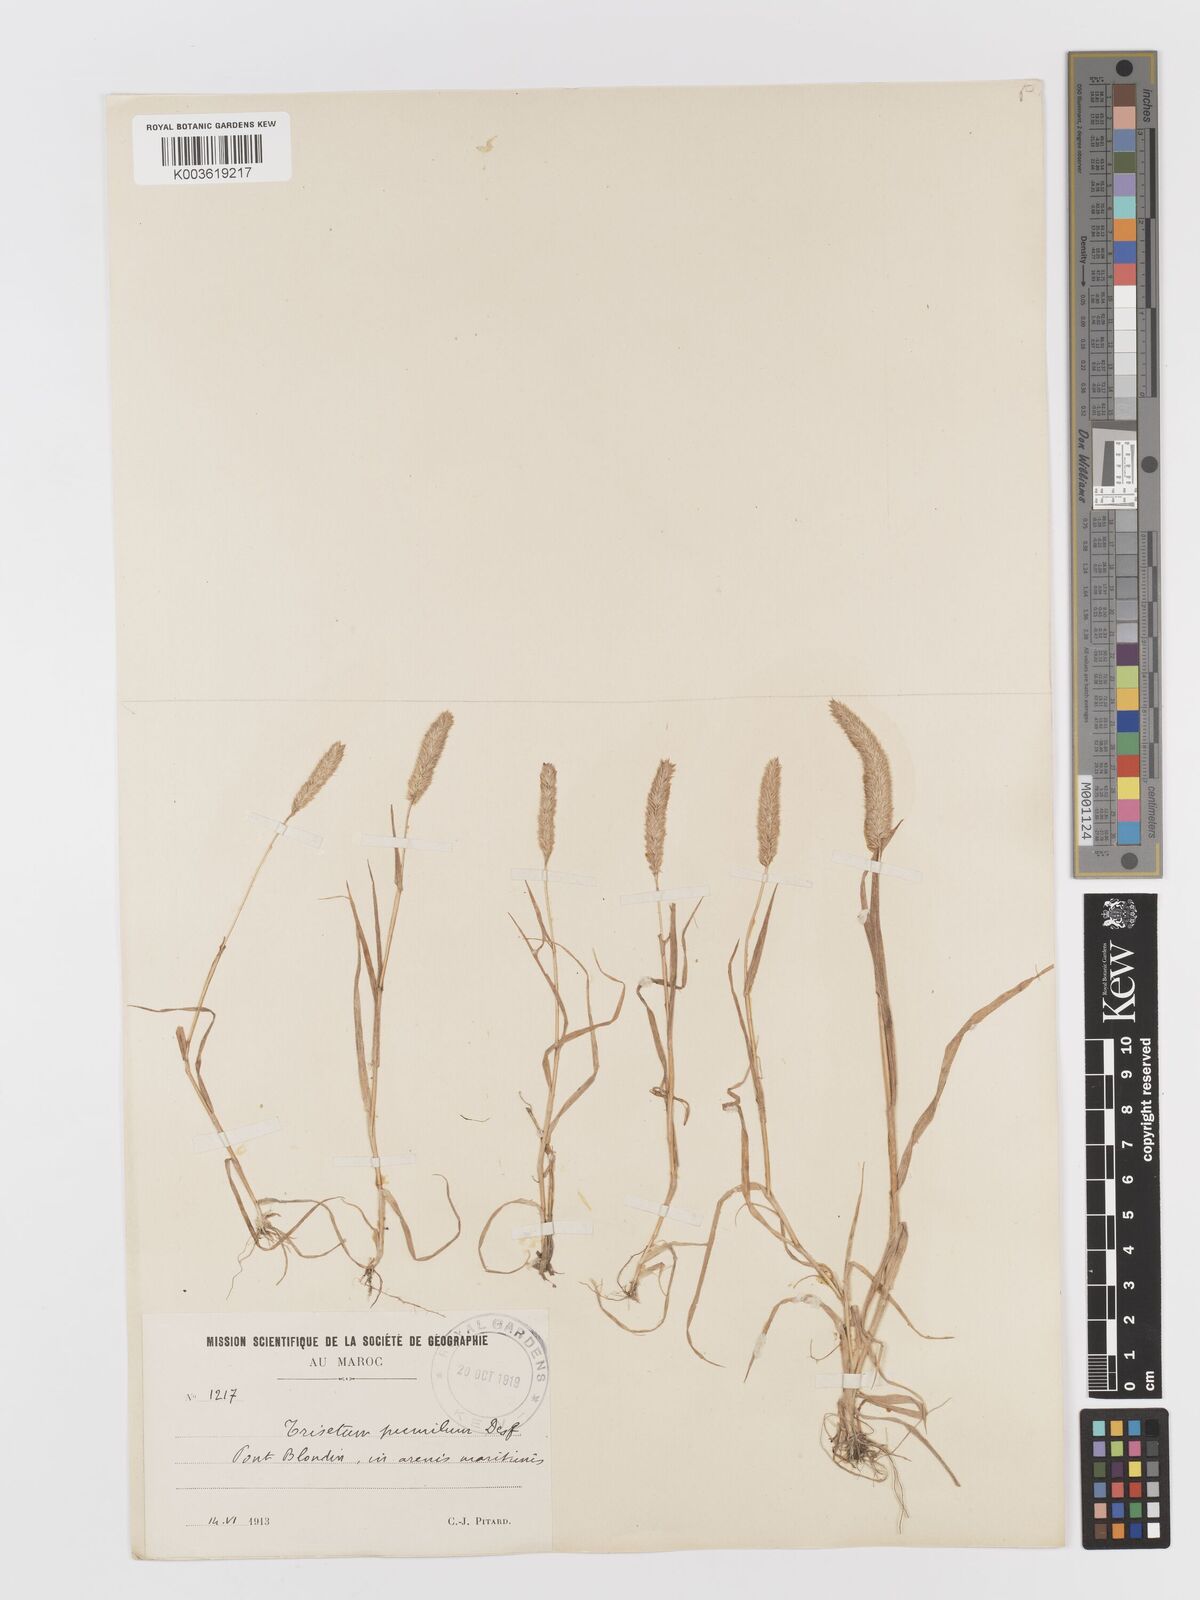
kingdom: Plantae
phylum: Tracheophyta
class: Liliopsida
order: Poales
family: Poaceae
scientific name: Poaceae
